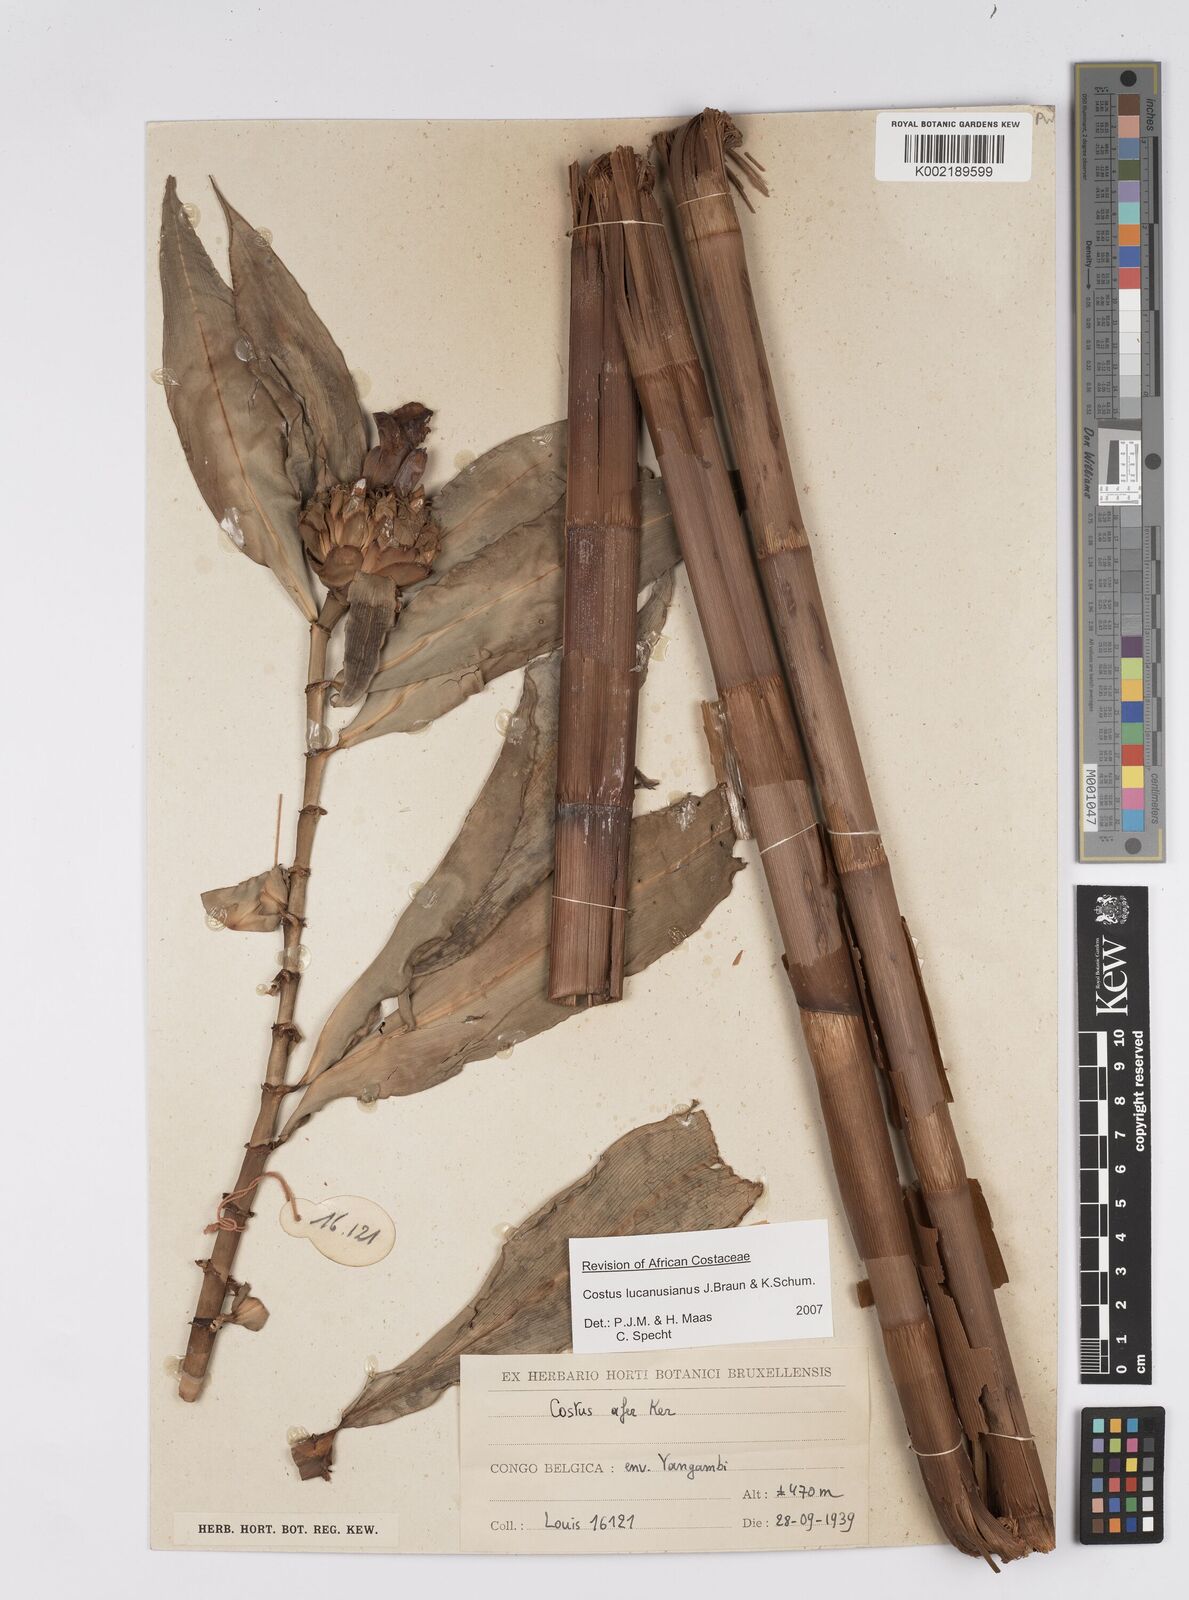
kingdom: Plantae
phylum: Tracheophyta
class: Liliopsida
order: Zingiberales
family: Costaceae
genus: Costus
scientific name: Costus lucanusianus
